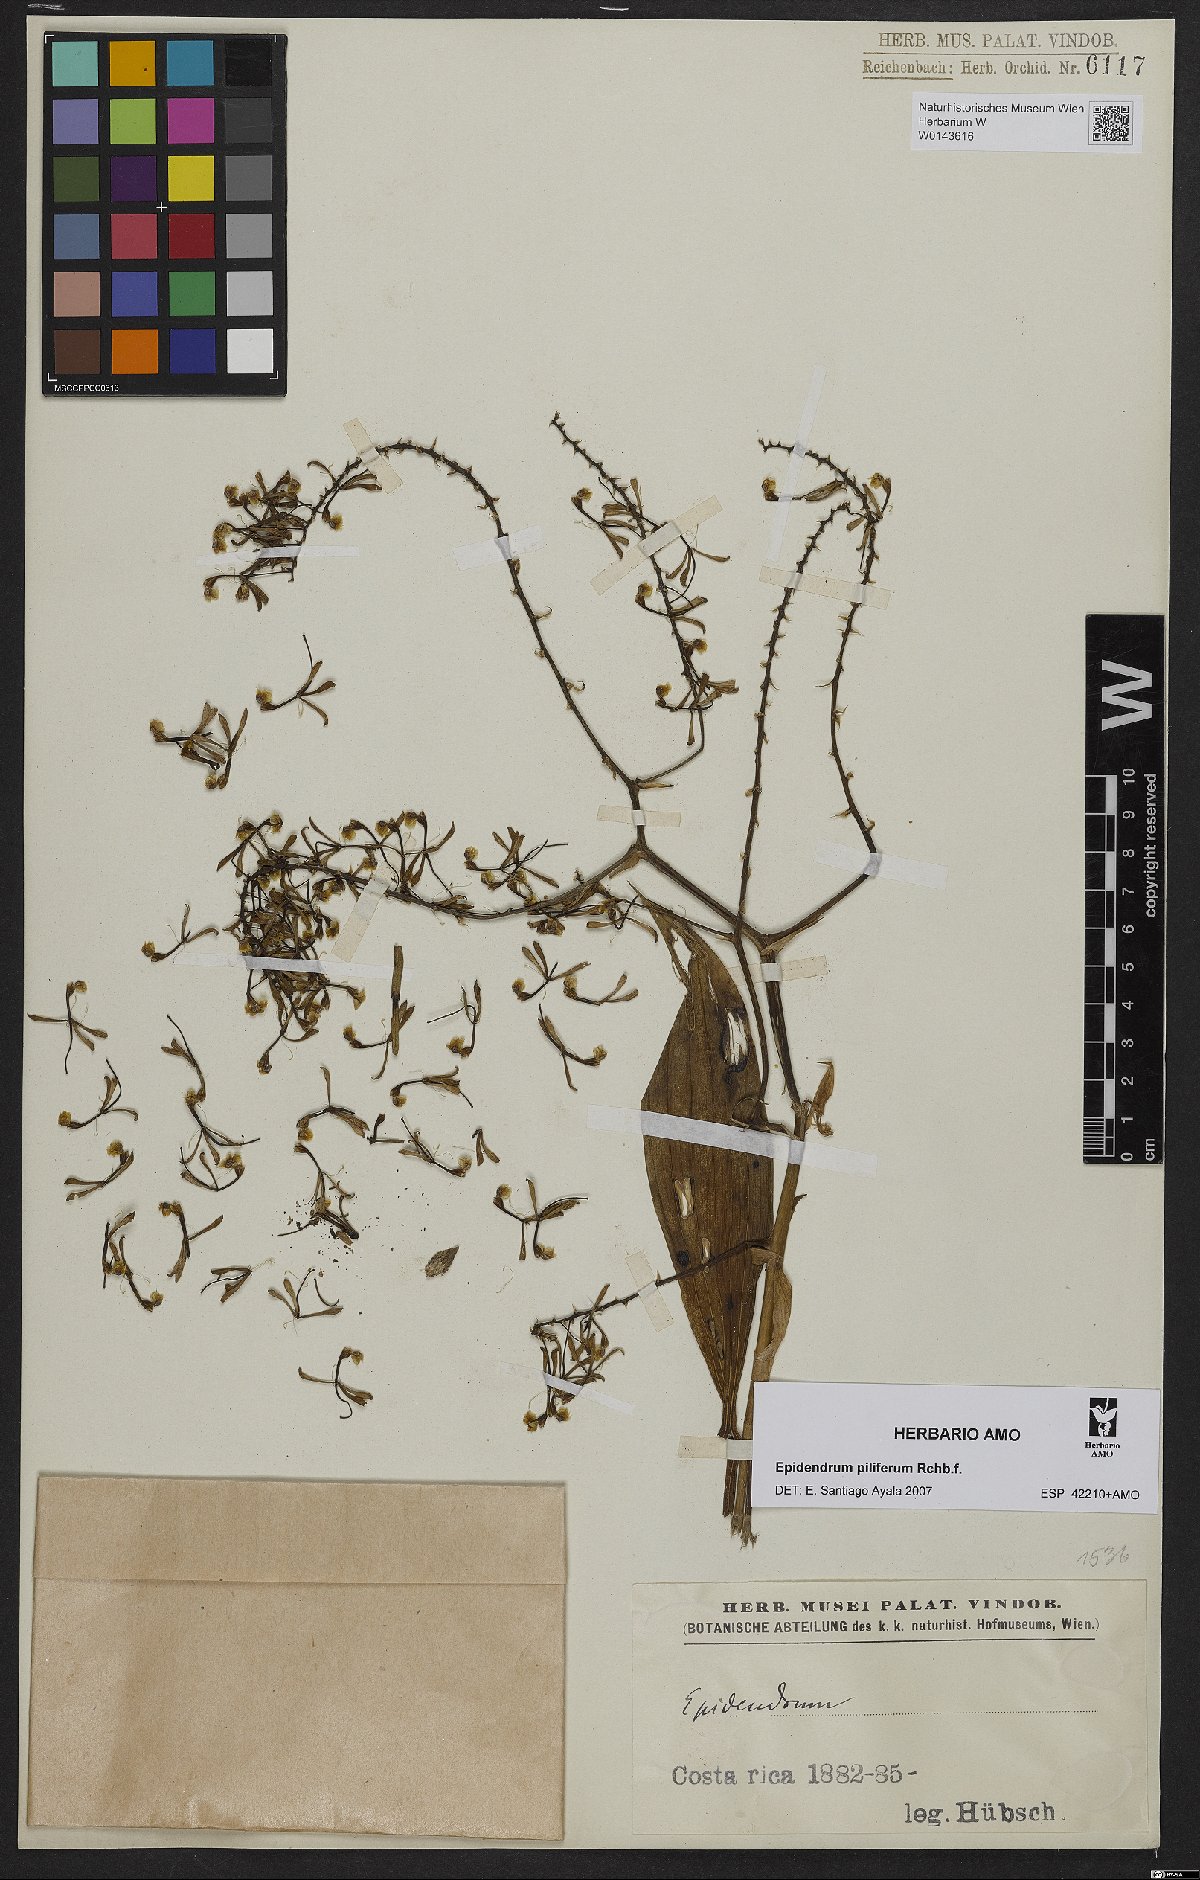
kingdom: Plantae
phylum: Tracheophyta
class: Liliopsida
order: Asparagales
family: Orchidaceae
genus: Epidendrum
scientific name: Epidendrum piliferum
